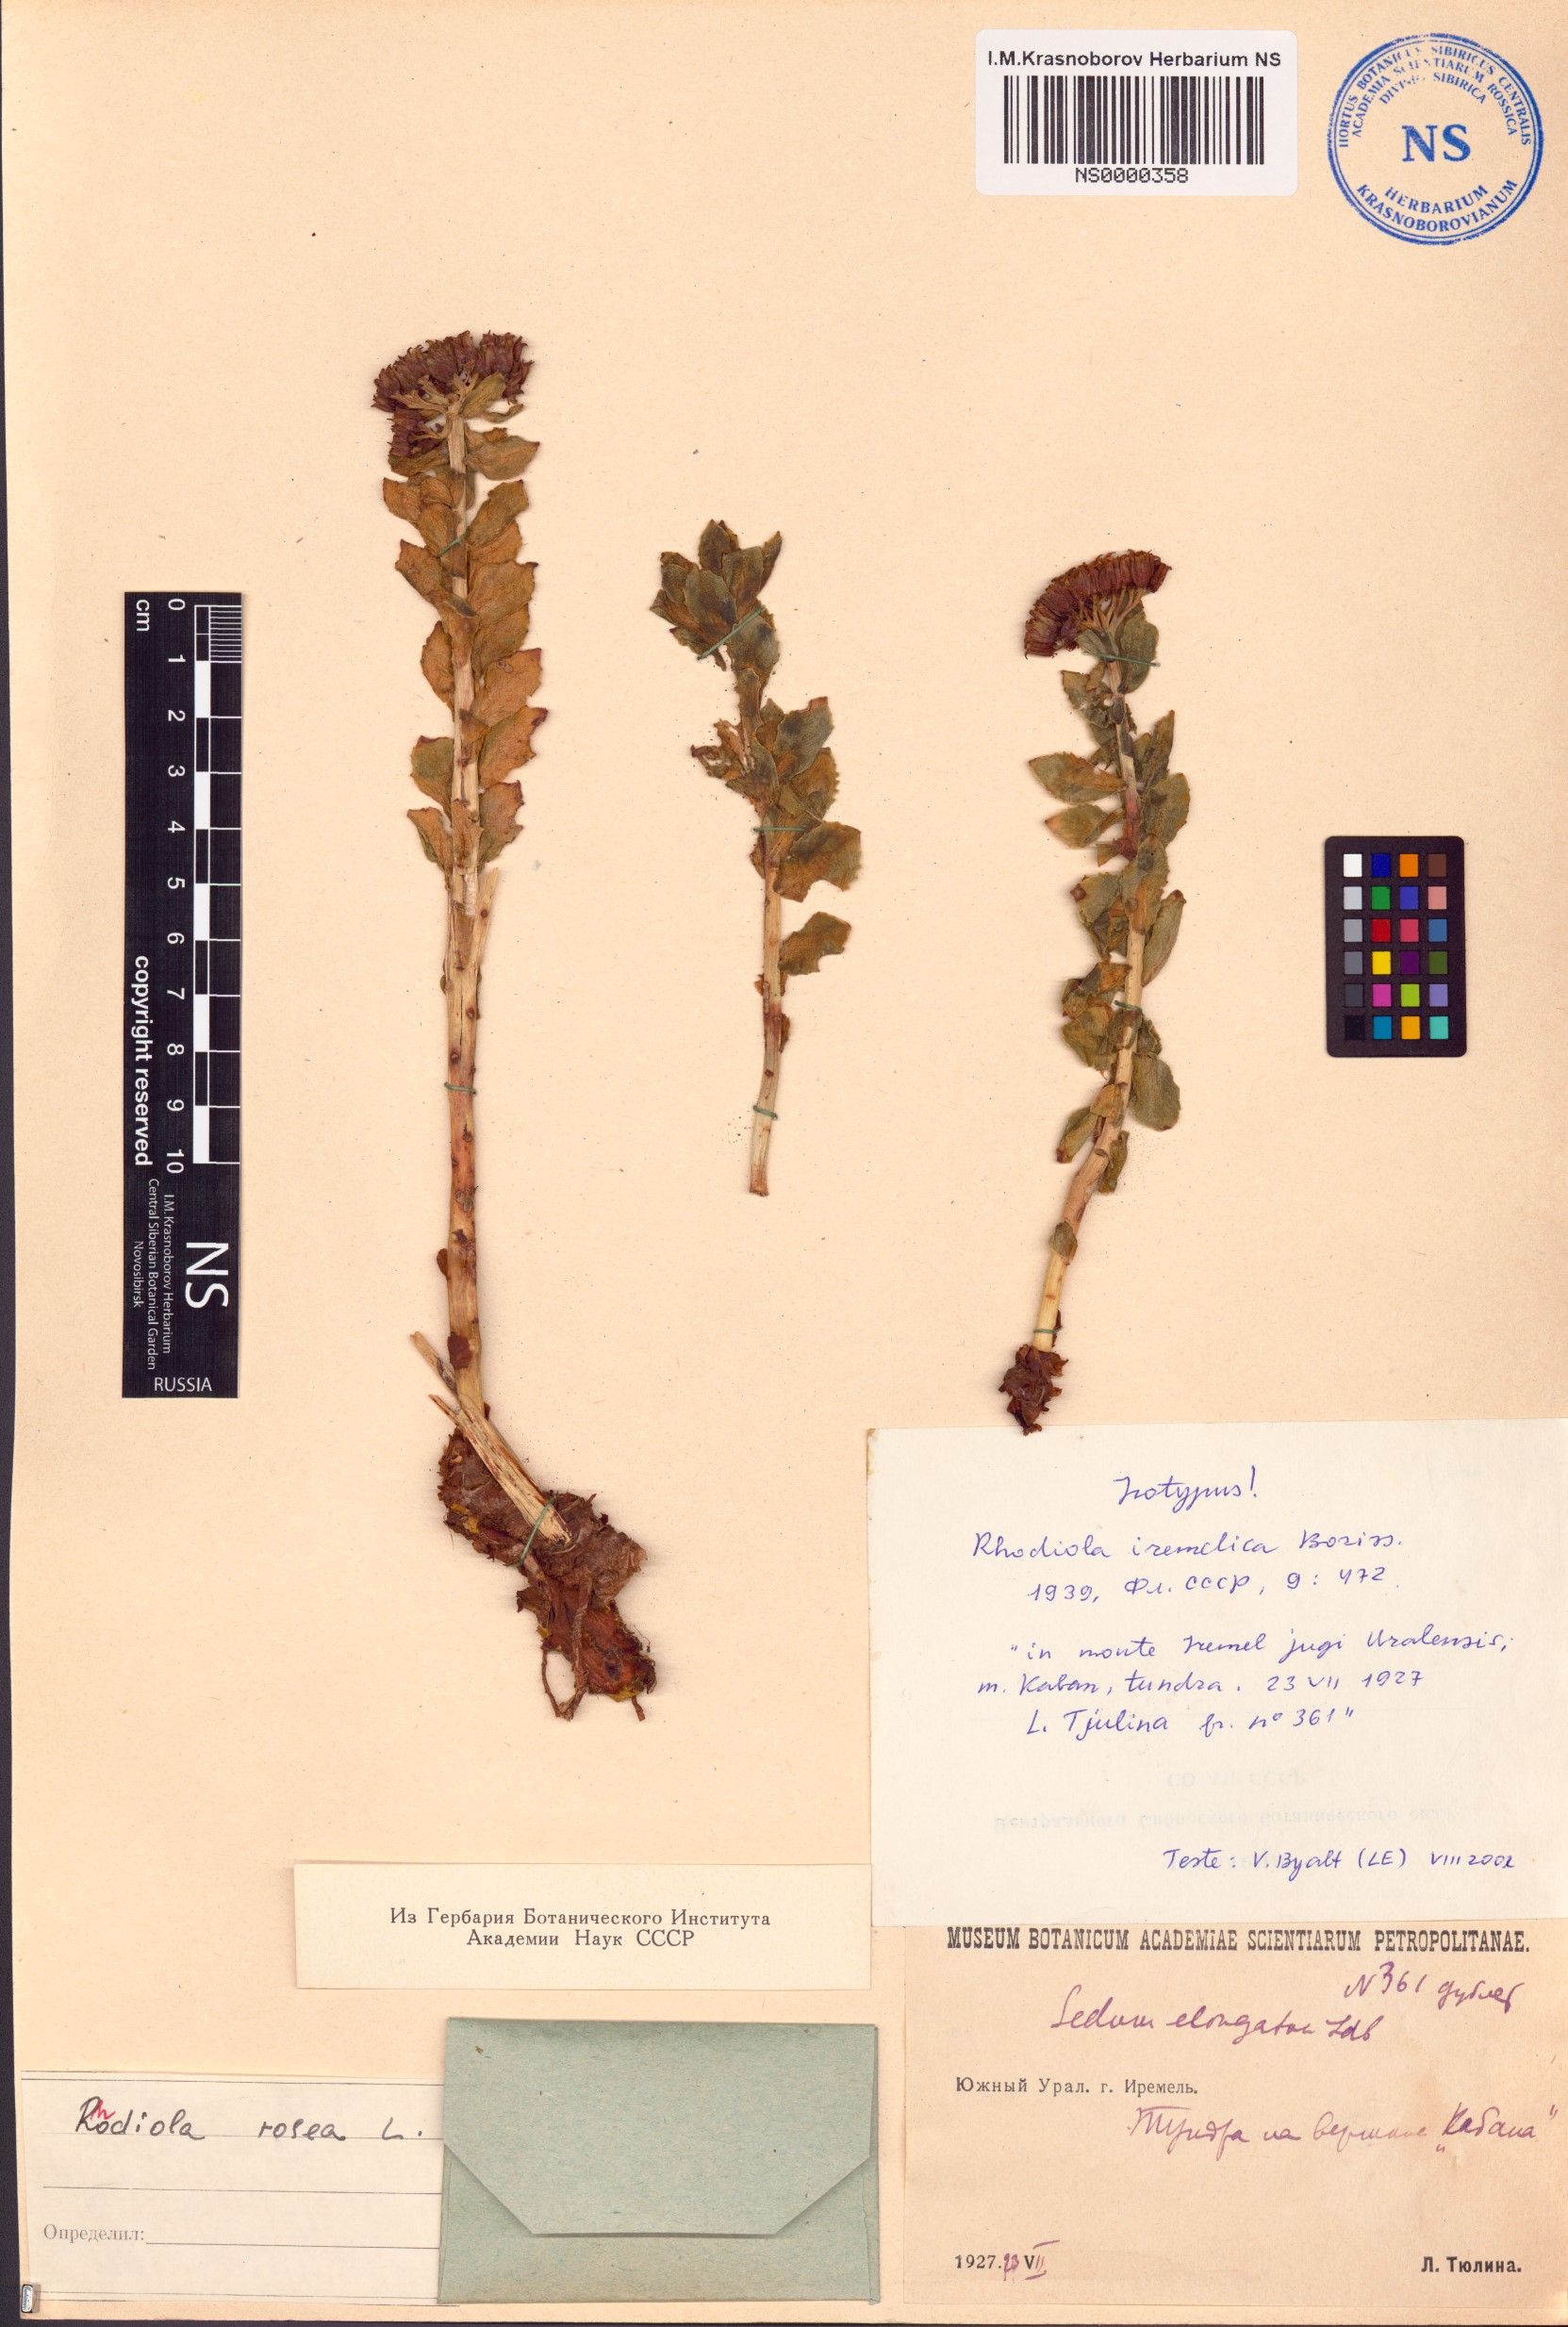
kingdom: Plantae
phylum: Tracheophyta
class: Magnoliopsida
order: Saxifragales
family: Crassulaceae
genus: Rhodiola
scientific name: Rhodiola rosea
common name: Roseroot
